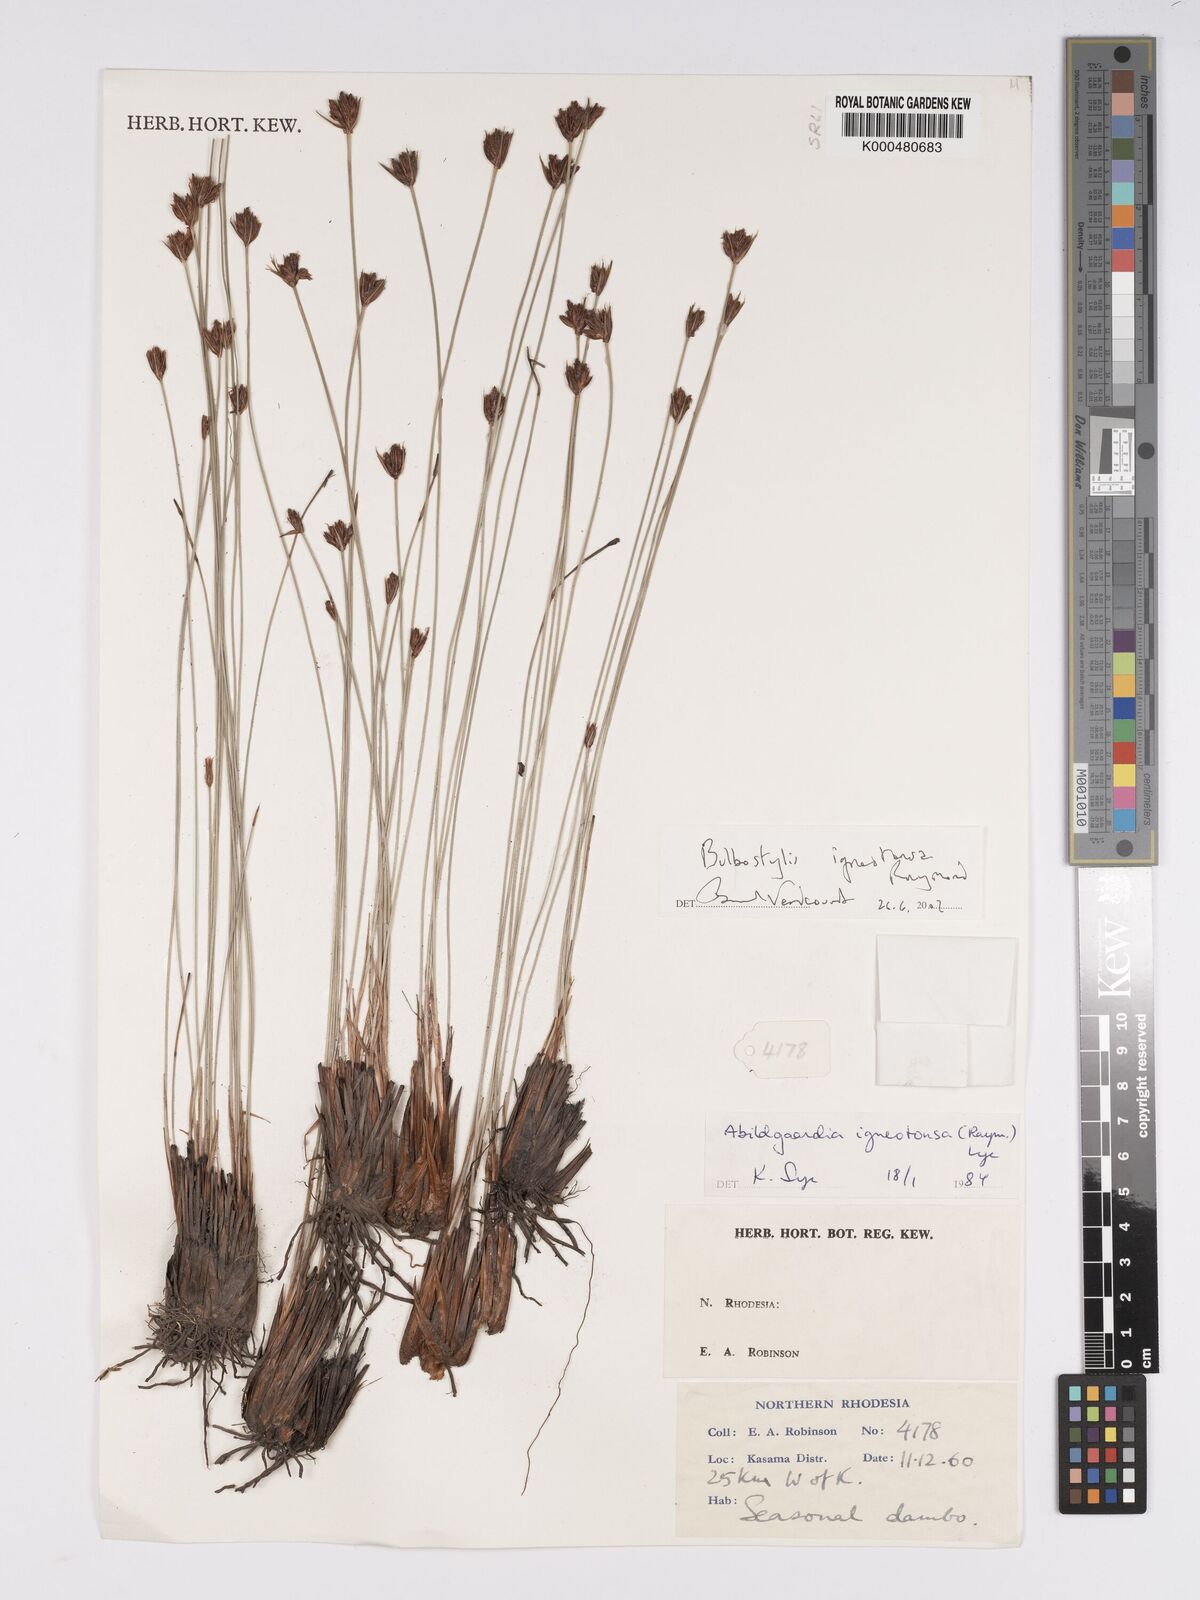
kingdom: Plantae
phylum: Tracheophyta
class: Liliopsida
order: Poales
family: Cyperaceae
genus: Bulbostylis
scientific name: Bulbostylis igneotonsa
